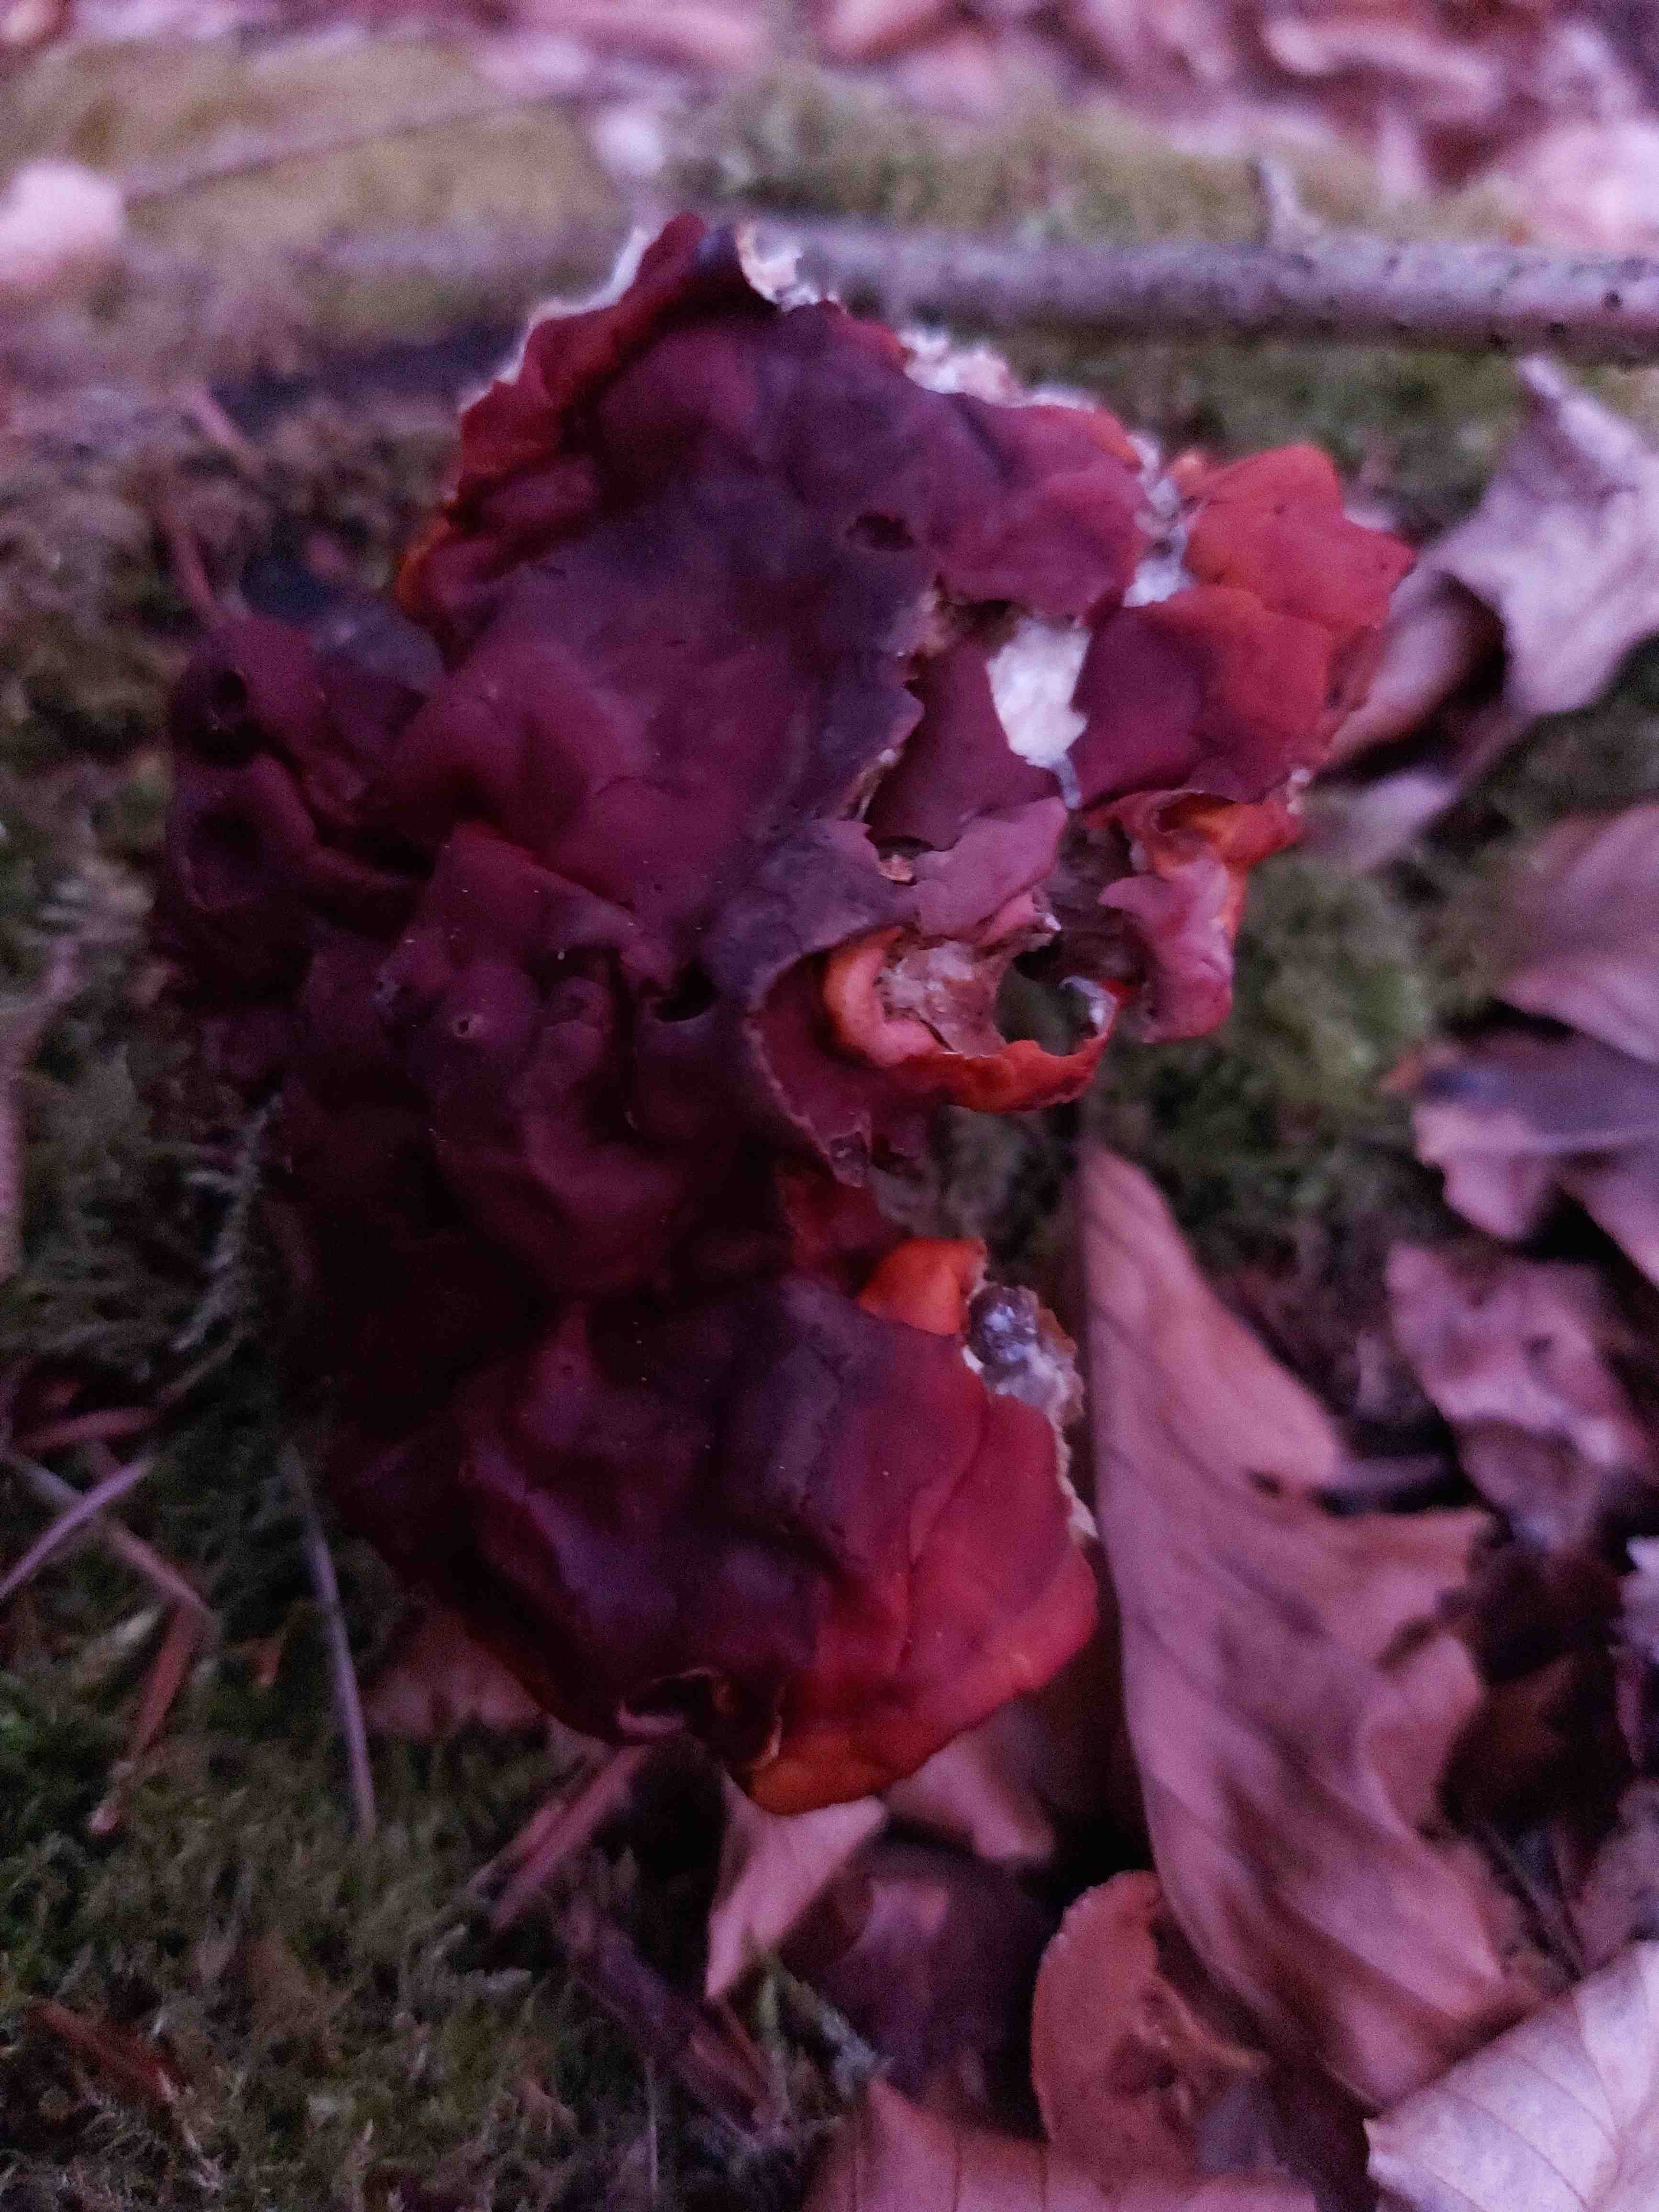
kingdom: Fungi
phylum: Basidiomycota
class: Agaricomycetes
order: Polyporales
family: Polyporaceae
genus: Ganoderma
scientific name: Ganoderma lucidum
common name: skinnende lakporesvamp
